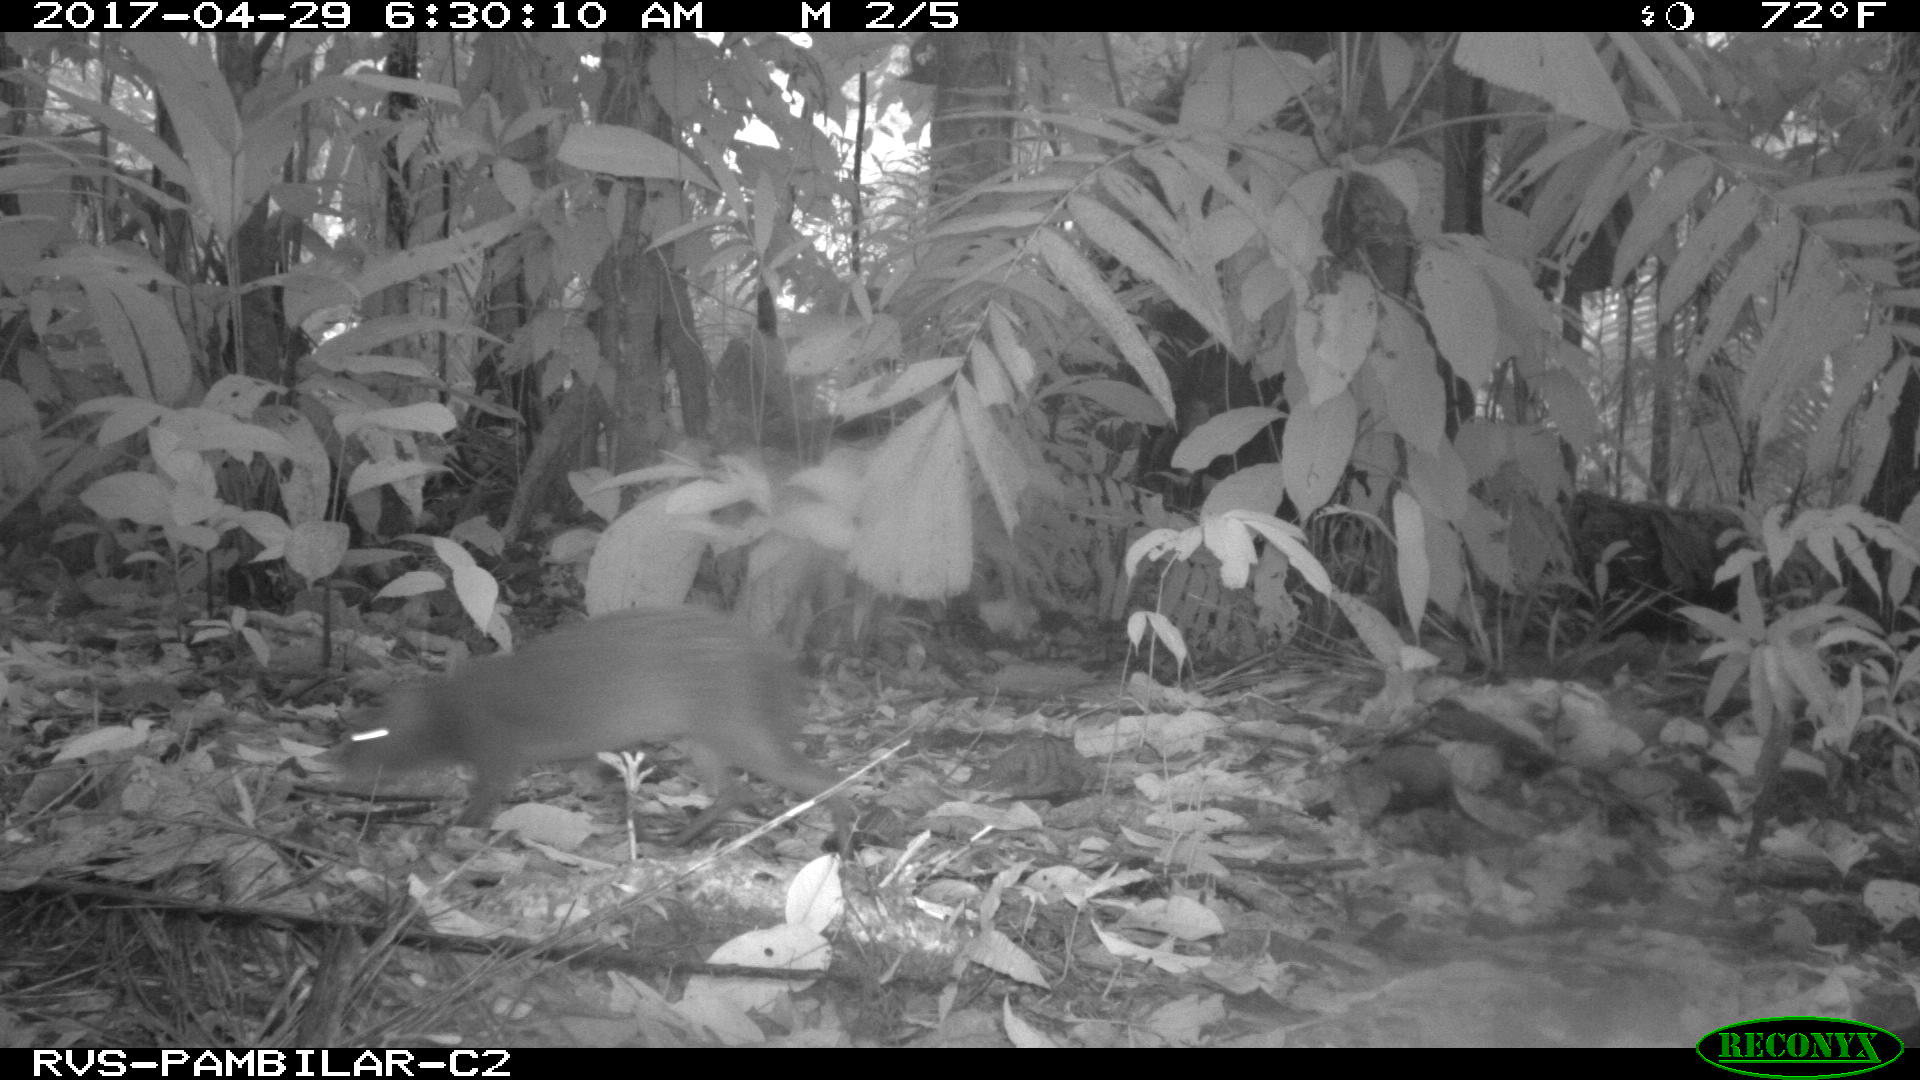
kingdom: Animalia
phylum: Chordata
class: Mammalia
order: Rodentia
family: Dasyproctidae
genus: Dasyprocta
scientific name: Dasyprocta punctata
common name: Central american agouti
